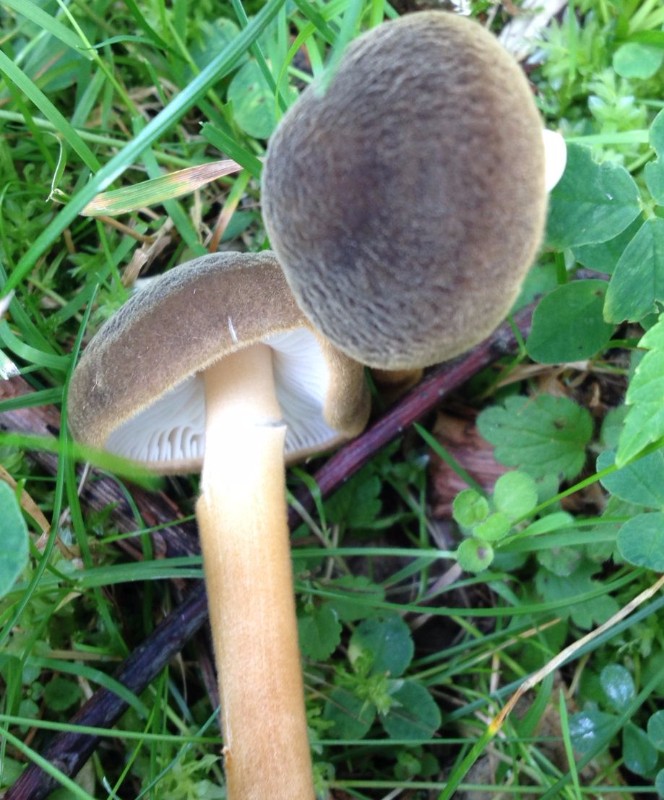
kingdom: Fungi
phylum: Basidiomycota
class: Agaricomycetes
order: Agaricales
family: Physalacriaceae
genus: Xerula
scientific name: Xerula pudens
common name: filtet pælerodshat
